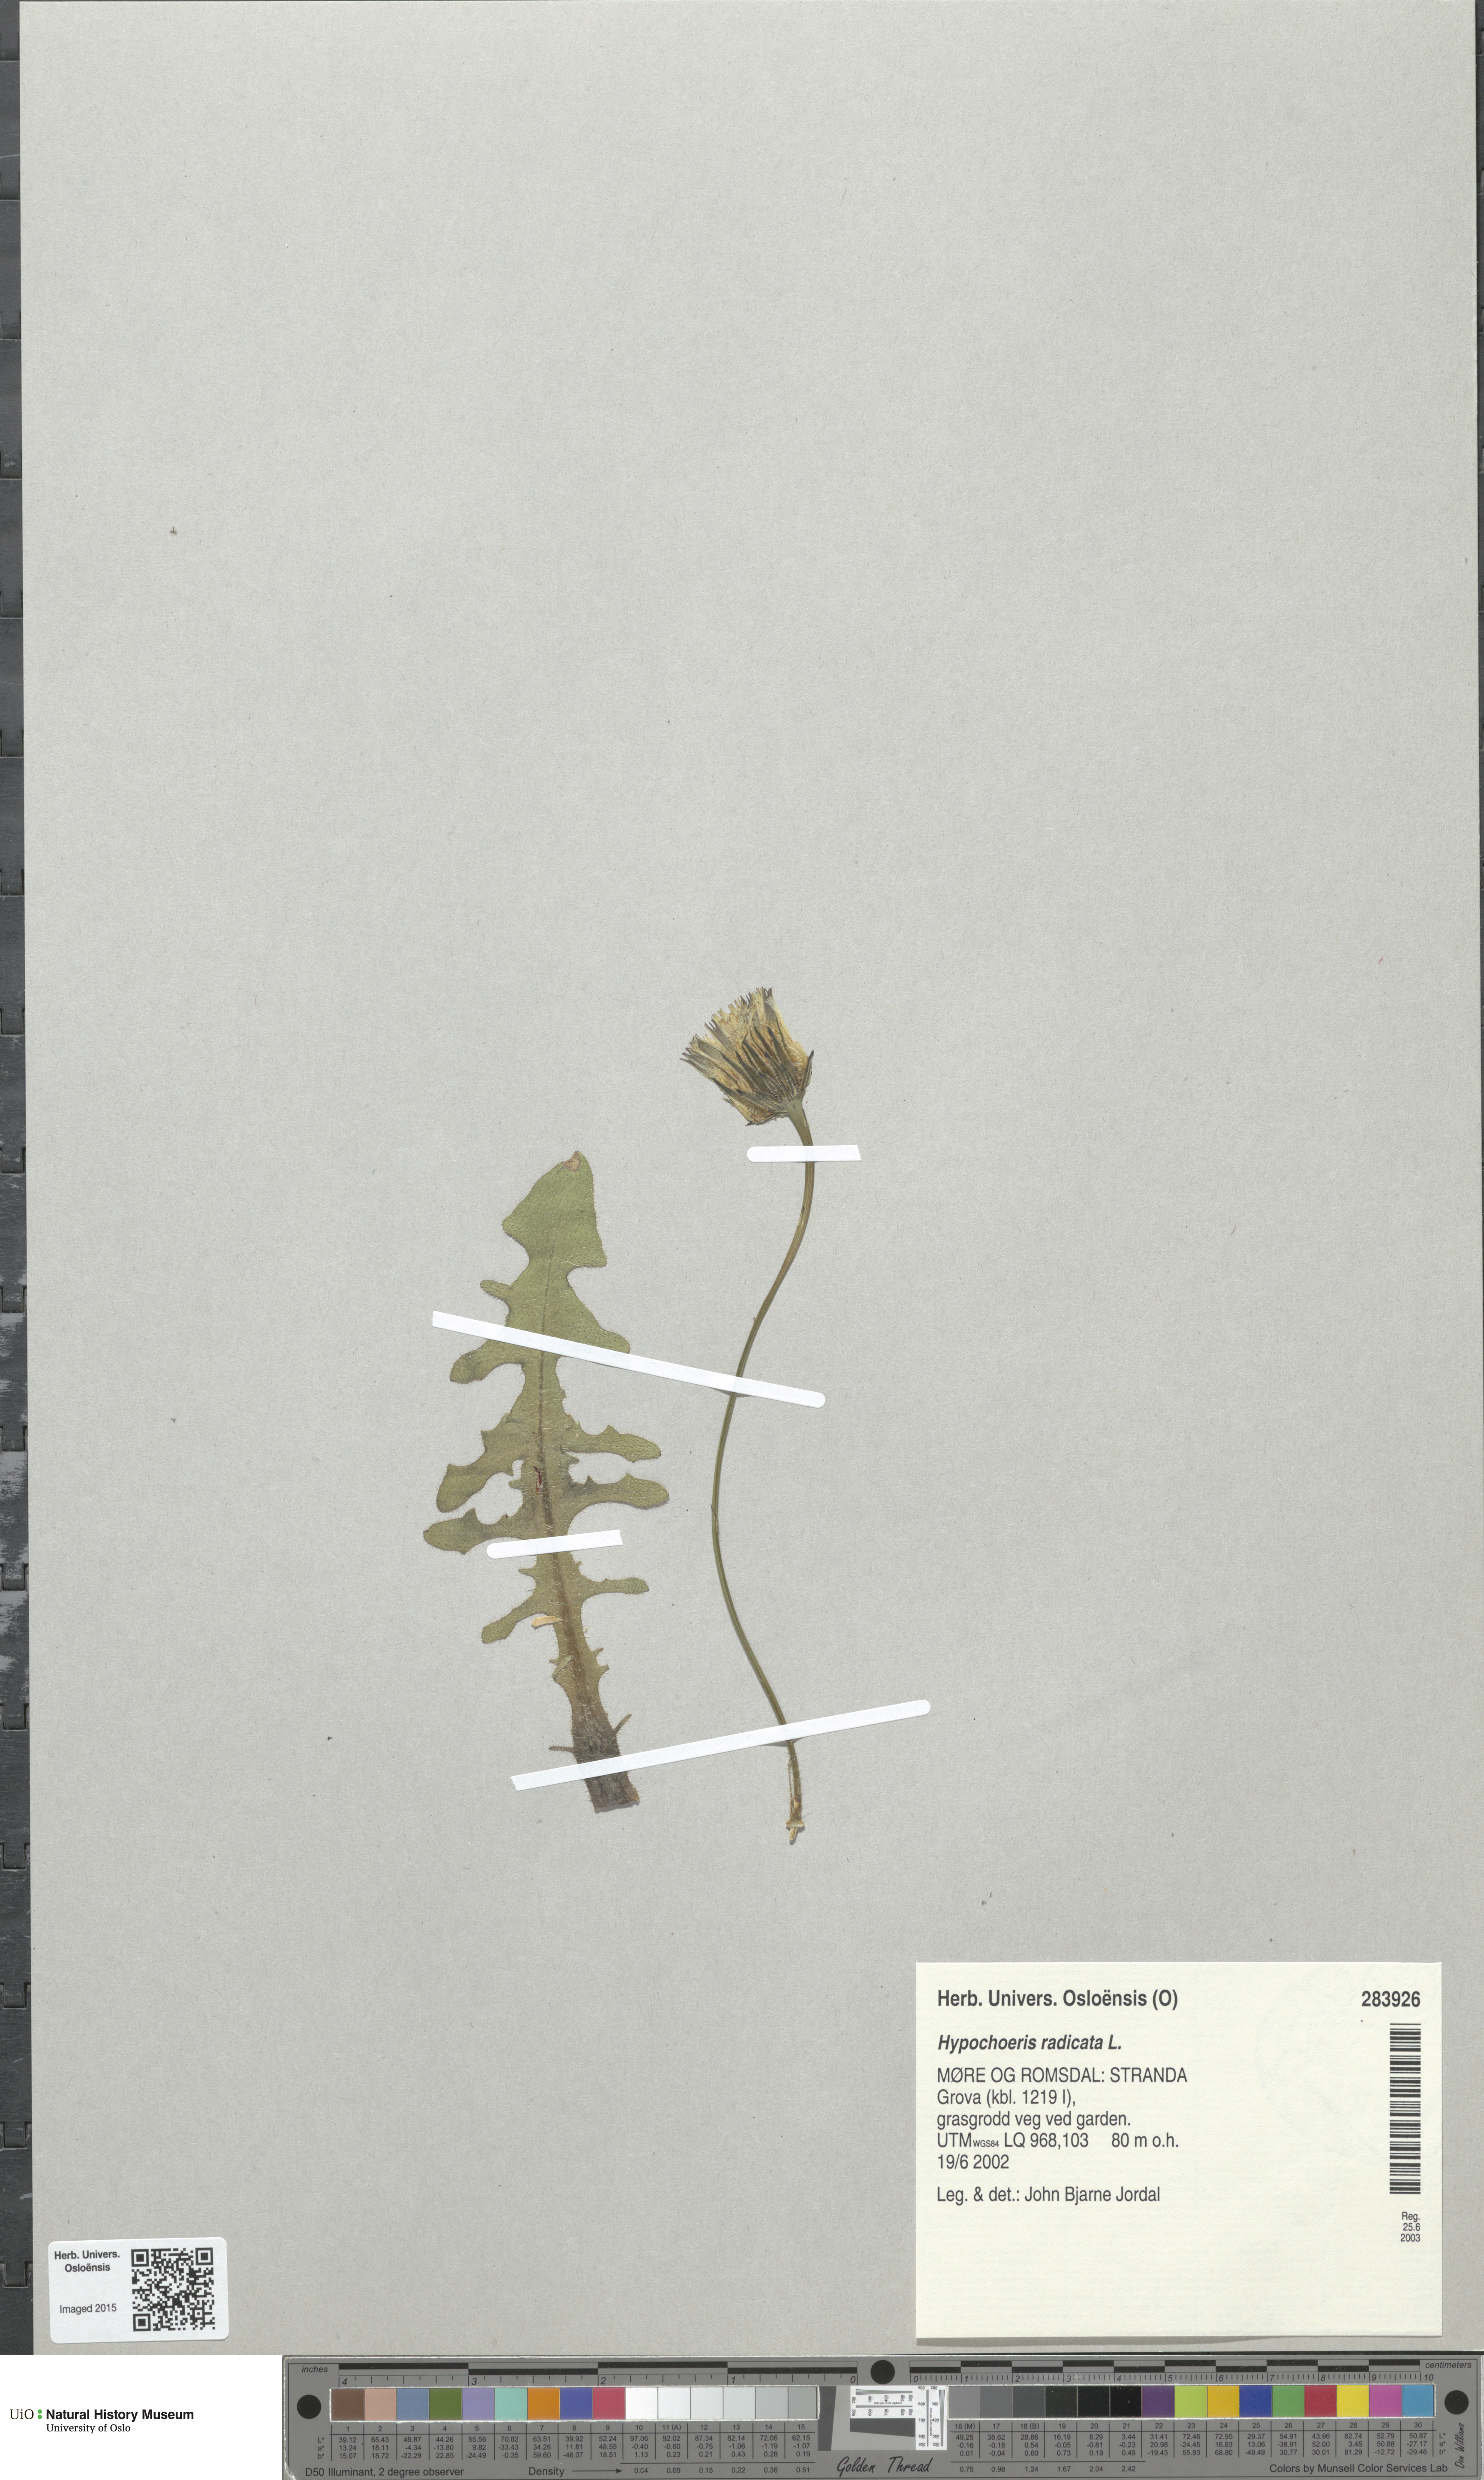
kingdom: Plantae
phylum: Tracheophyta
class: Magnoliopsida
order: Asterales
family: Asteraceae
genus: Hypochaeris
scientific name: Hypochaeris radicata
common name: Flatweed
